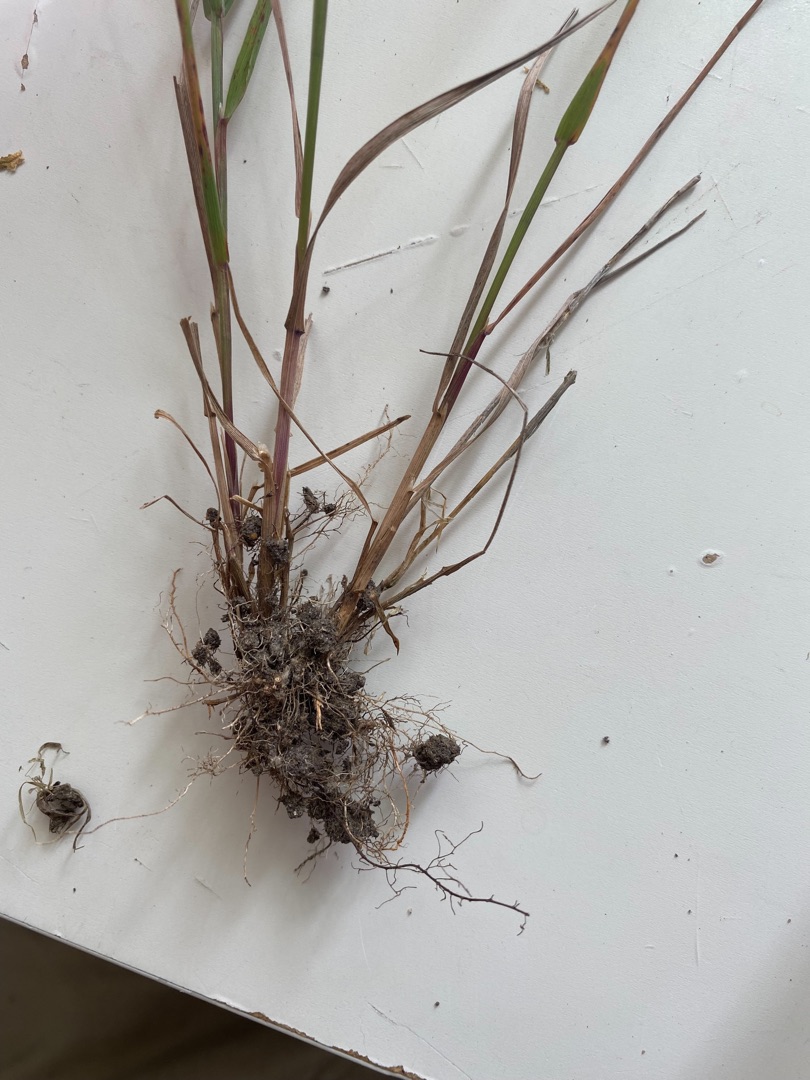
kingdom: Plantae
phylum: Tracheophyta
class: Liliopsida
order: Poales
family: Poaceae
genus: Agrostis
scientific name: Agrostis gigantea
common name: Stortoppet hvene
